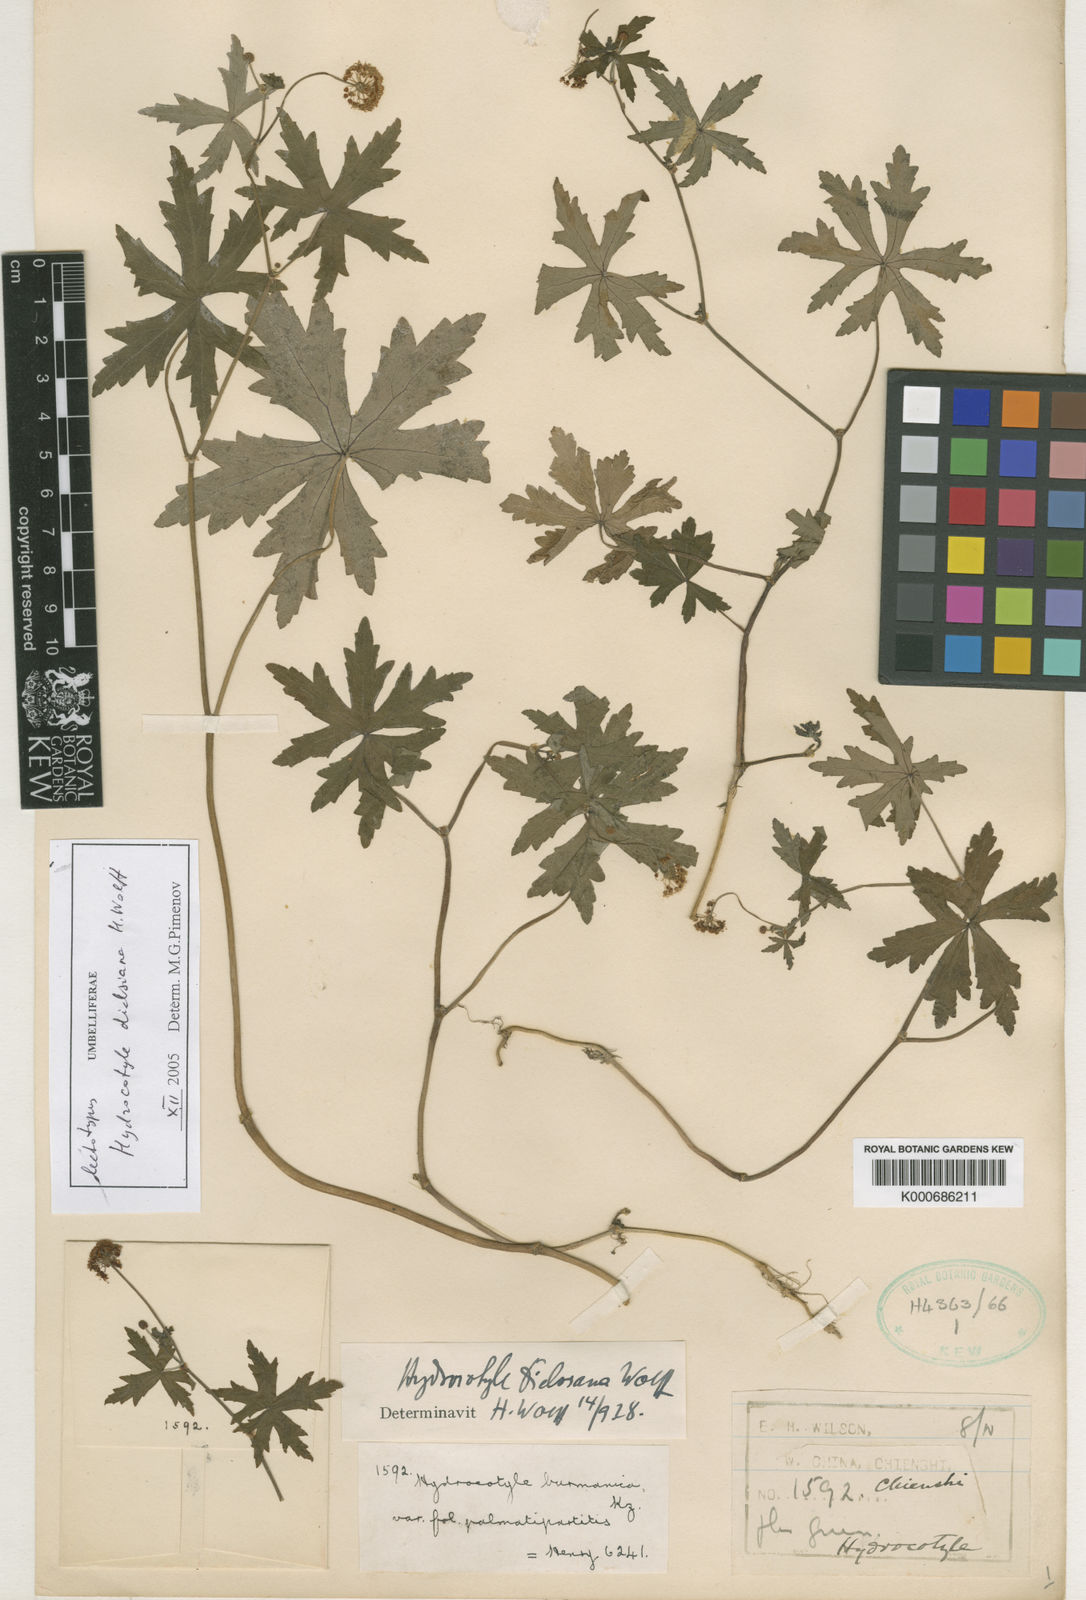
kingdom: Plantae
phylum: Tracheophyta
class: Magnoliopsida
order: Apiales
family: Araliaceae
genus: Hydrocotyle
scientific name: Hydrocotyle dielsiana
